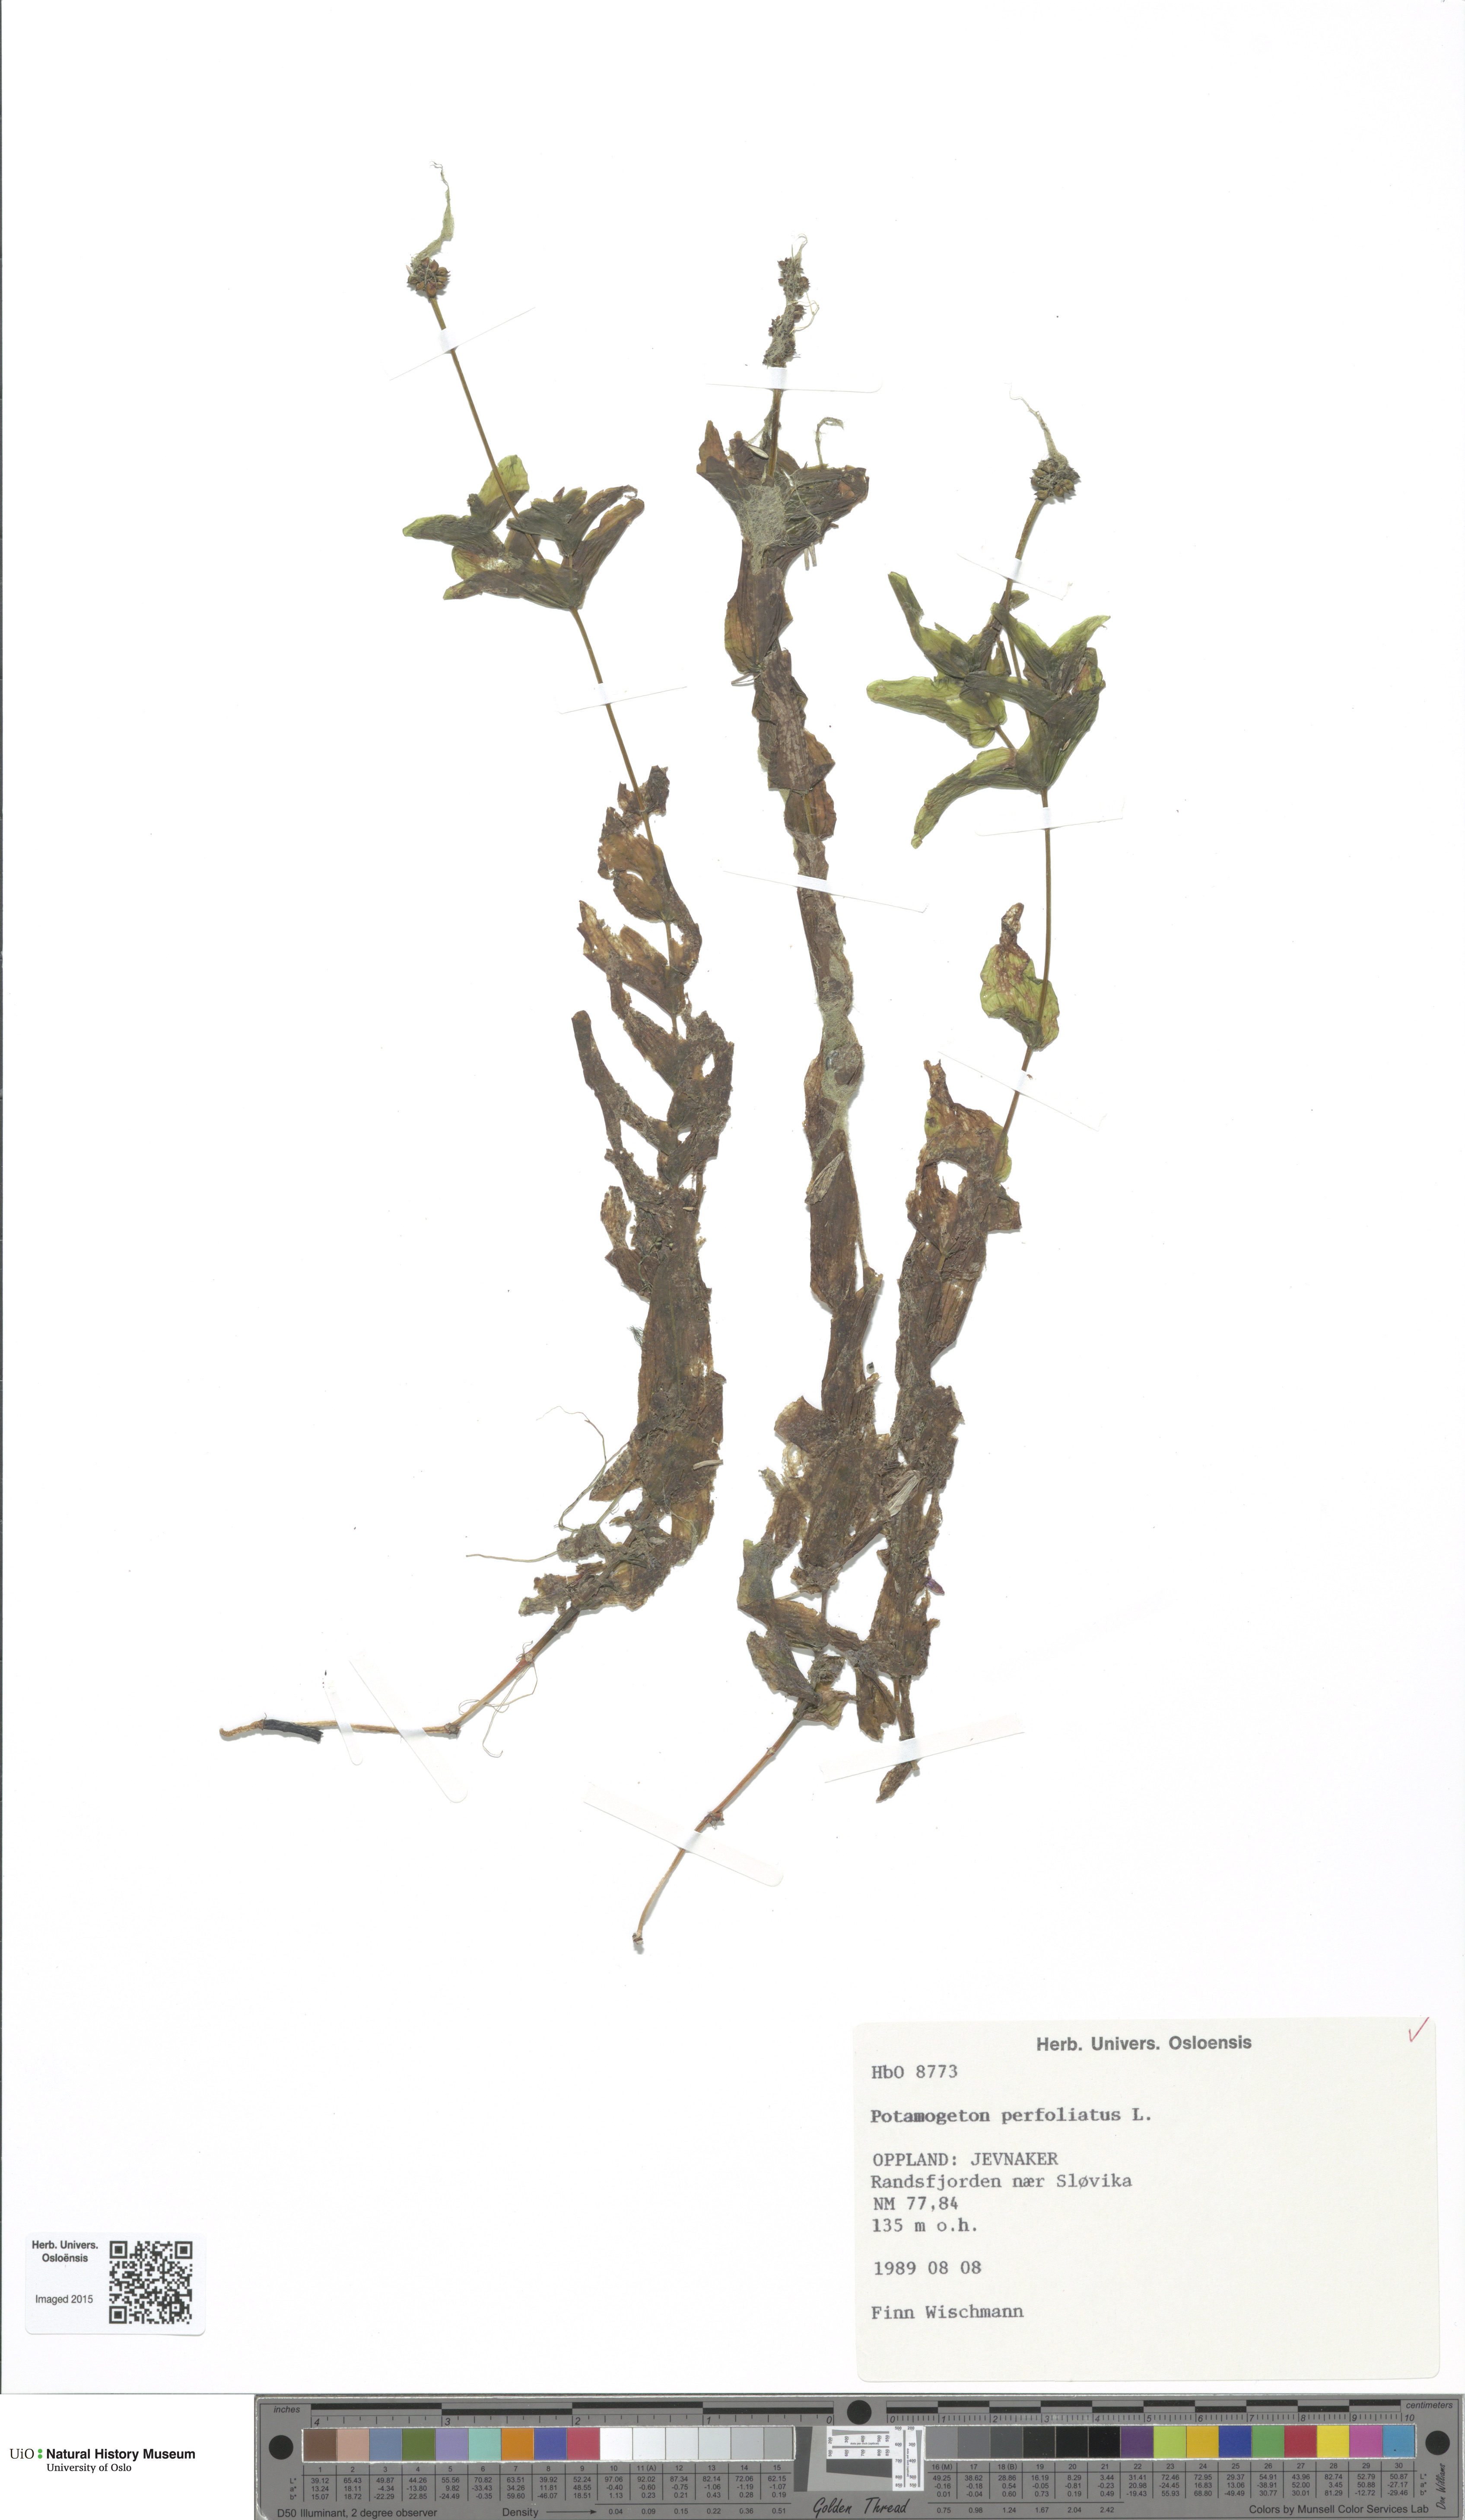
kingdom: Plantae
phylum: Tracheophyta
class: Liliopsida
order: Alismatales
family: Potamogetonaceae
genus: Potamogeton
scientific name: Potamogeton perfoliatus
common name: Perfoliate pondweed
